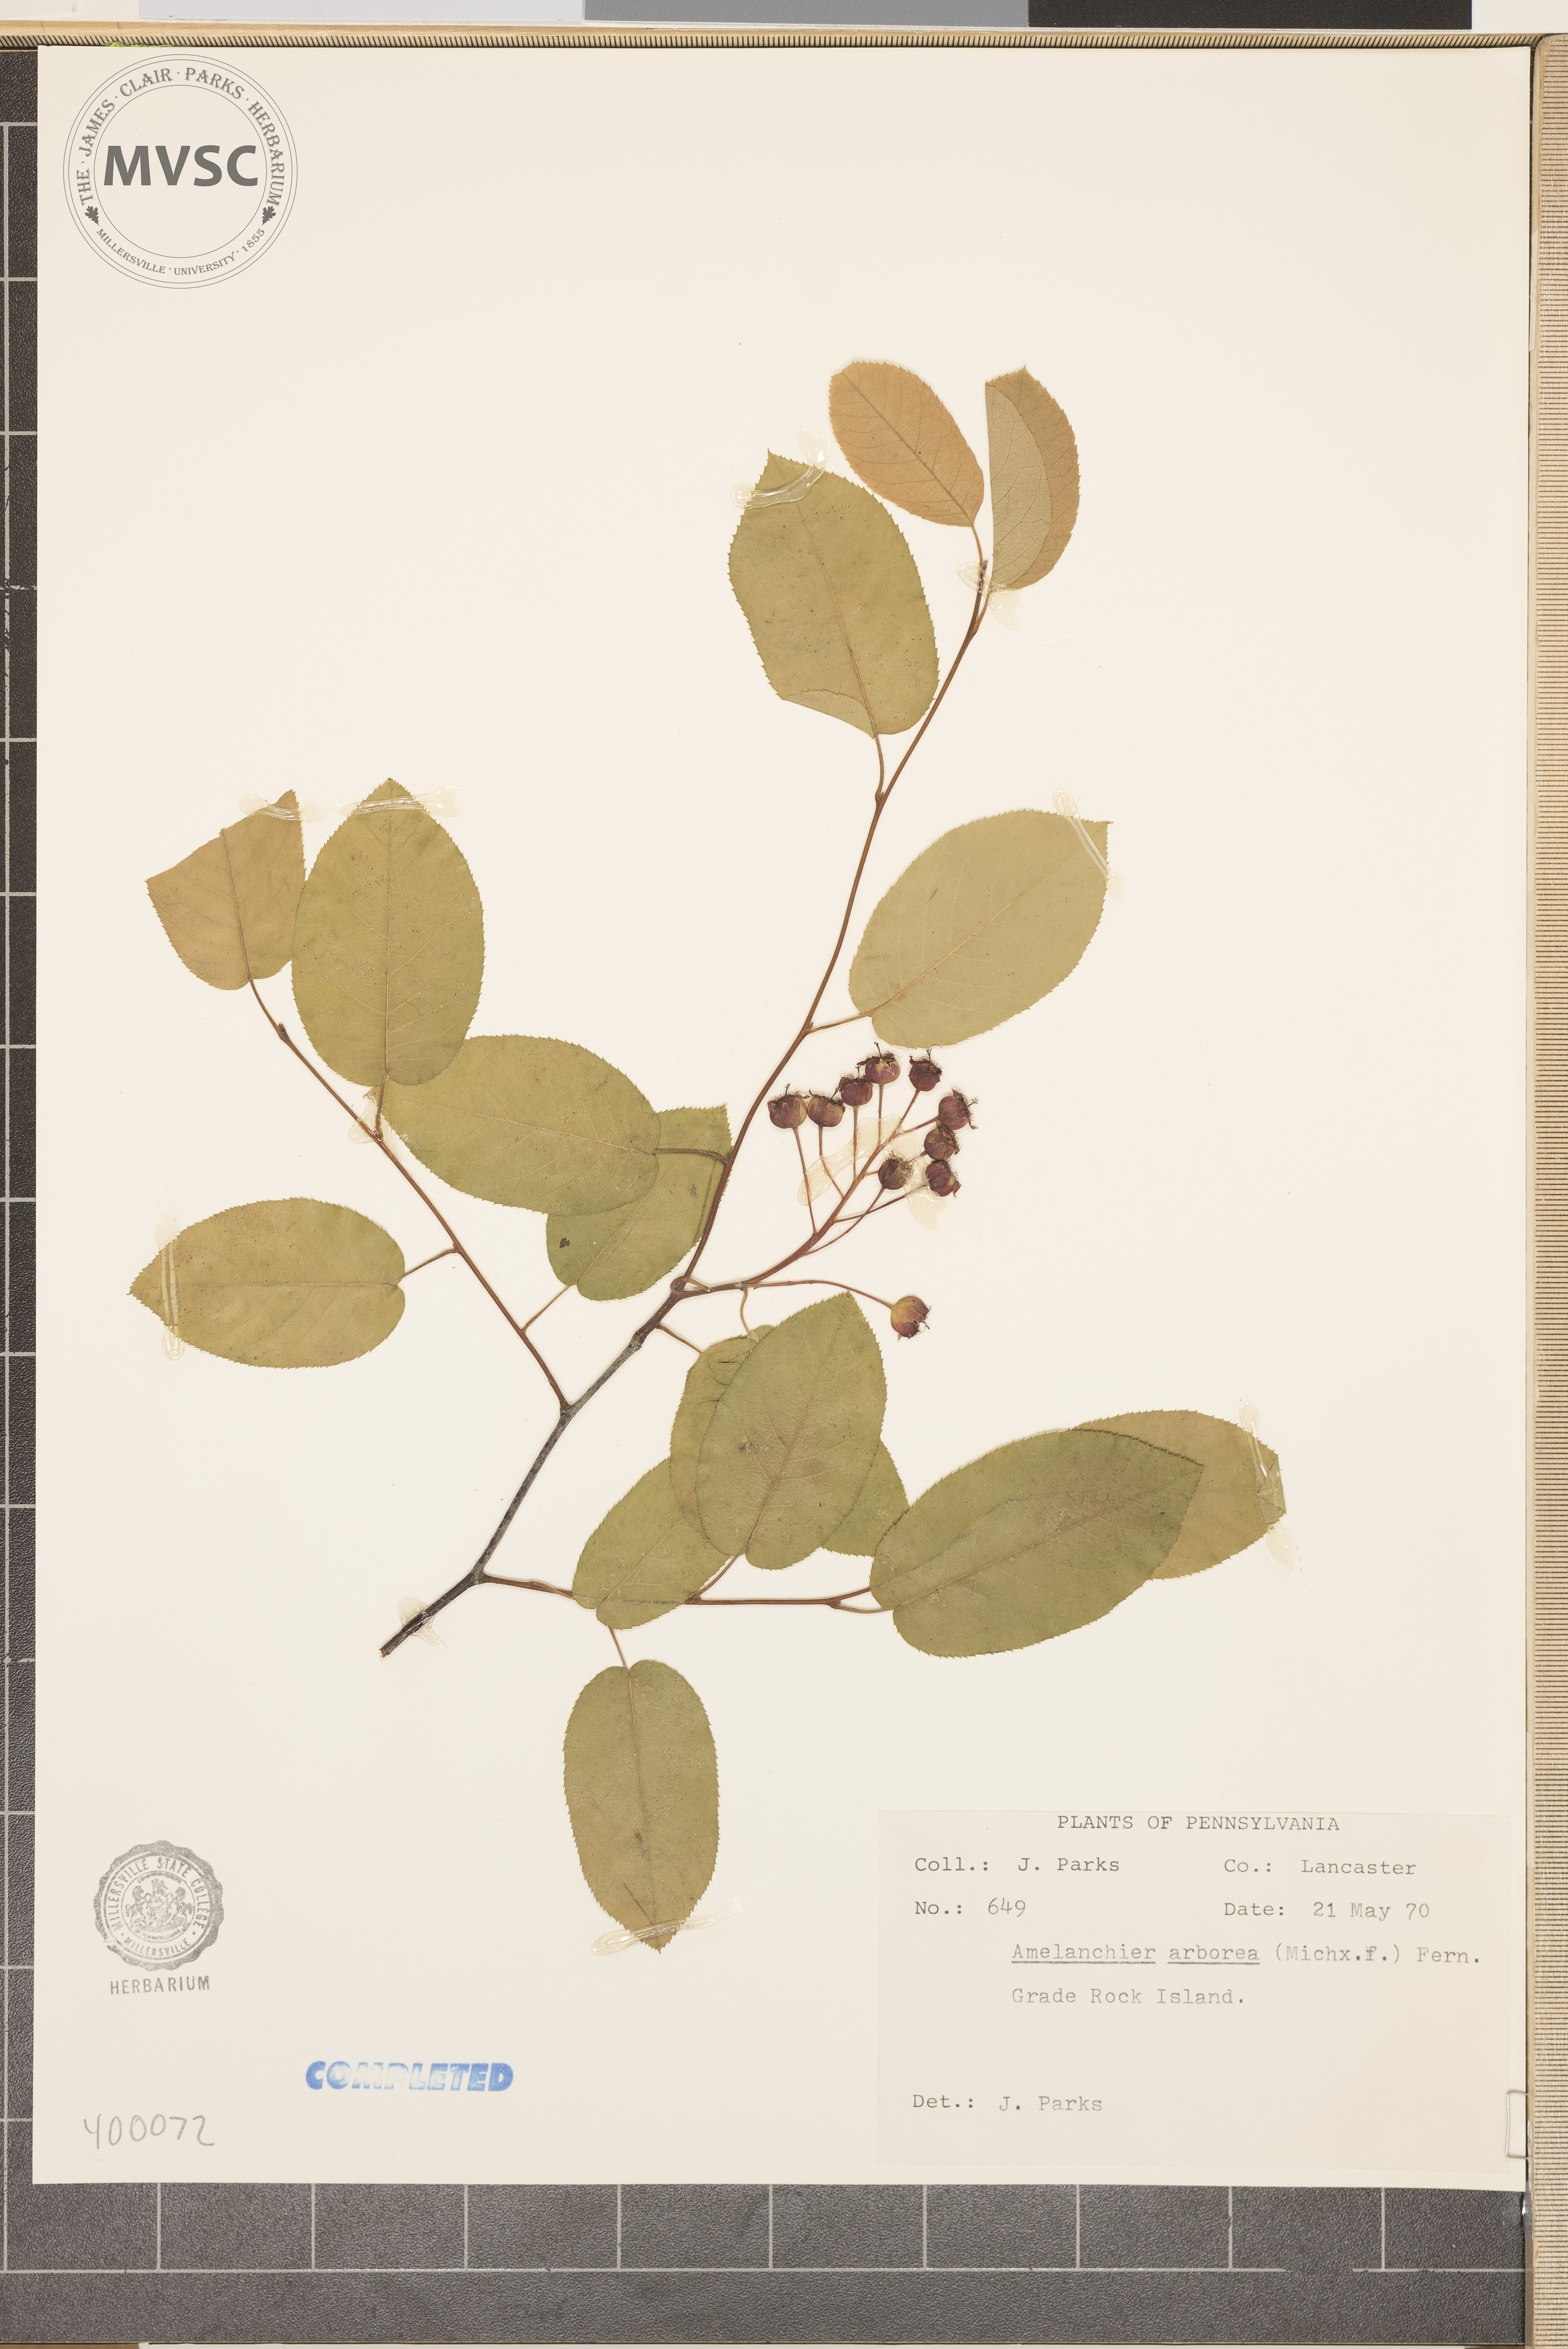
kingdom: Plantae
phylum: Tracheophyta
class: Magnoliopsida
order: Rosales
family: Rosaceae
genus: Amelanchier
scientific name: Amelanchier arborea
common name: serviceberry
